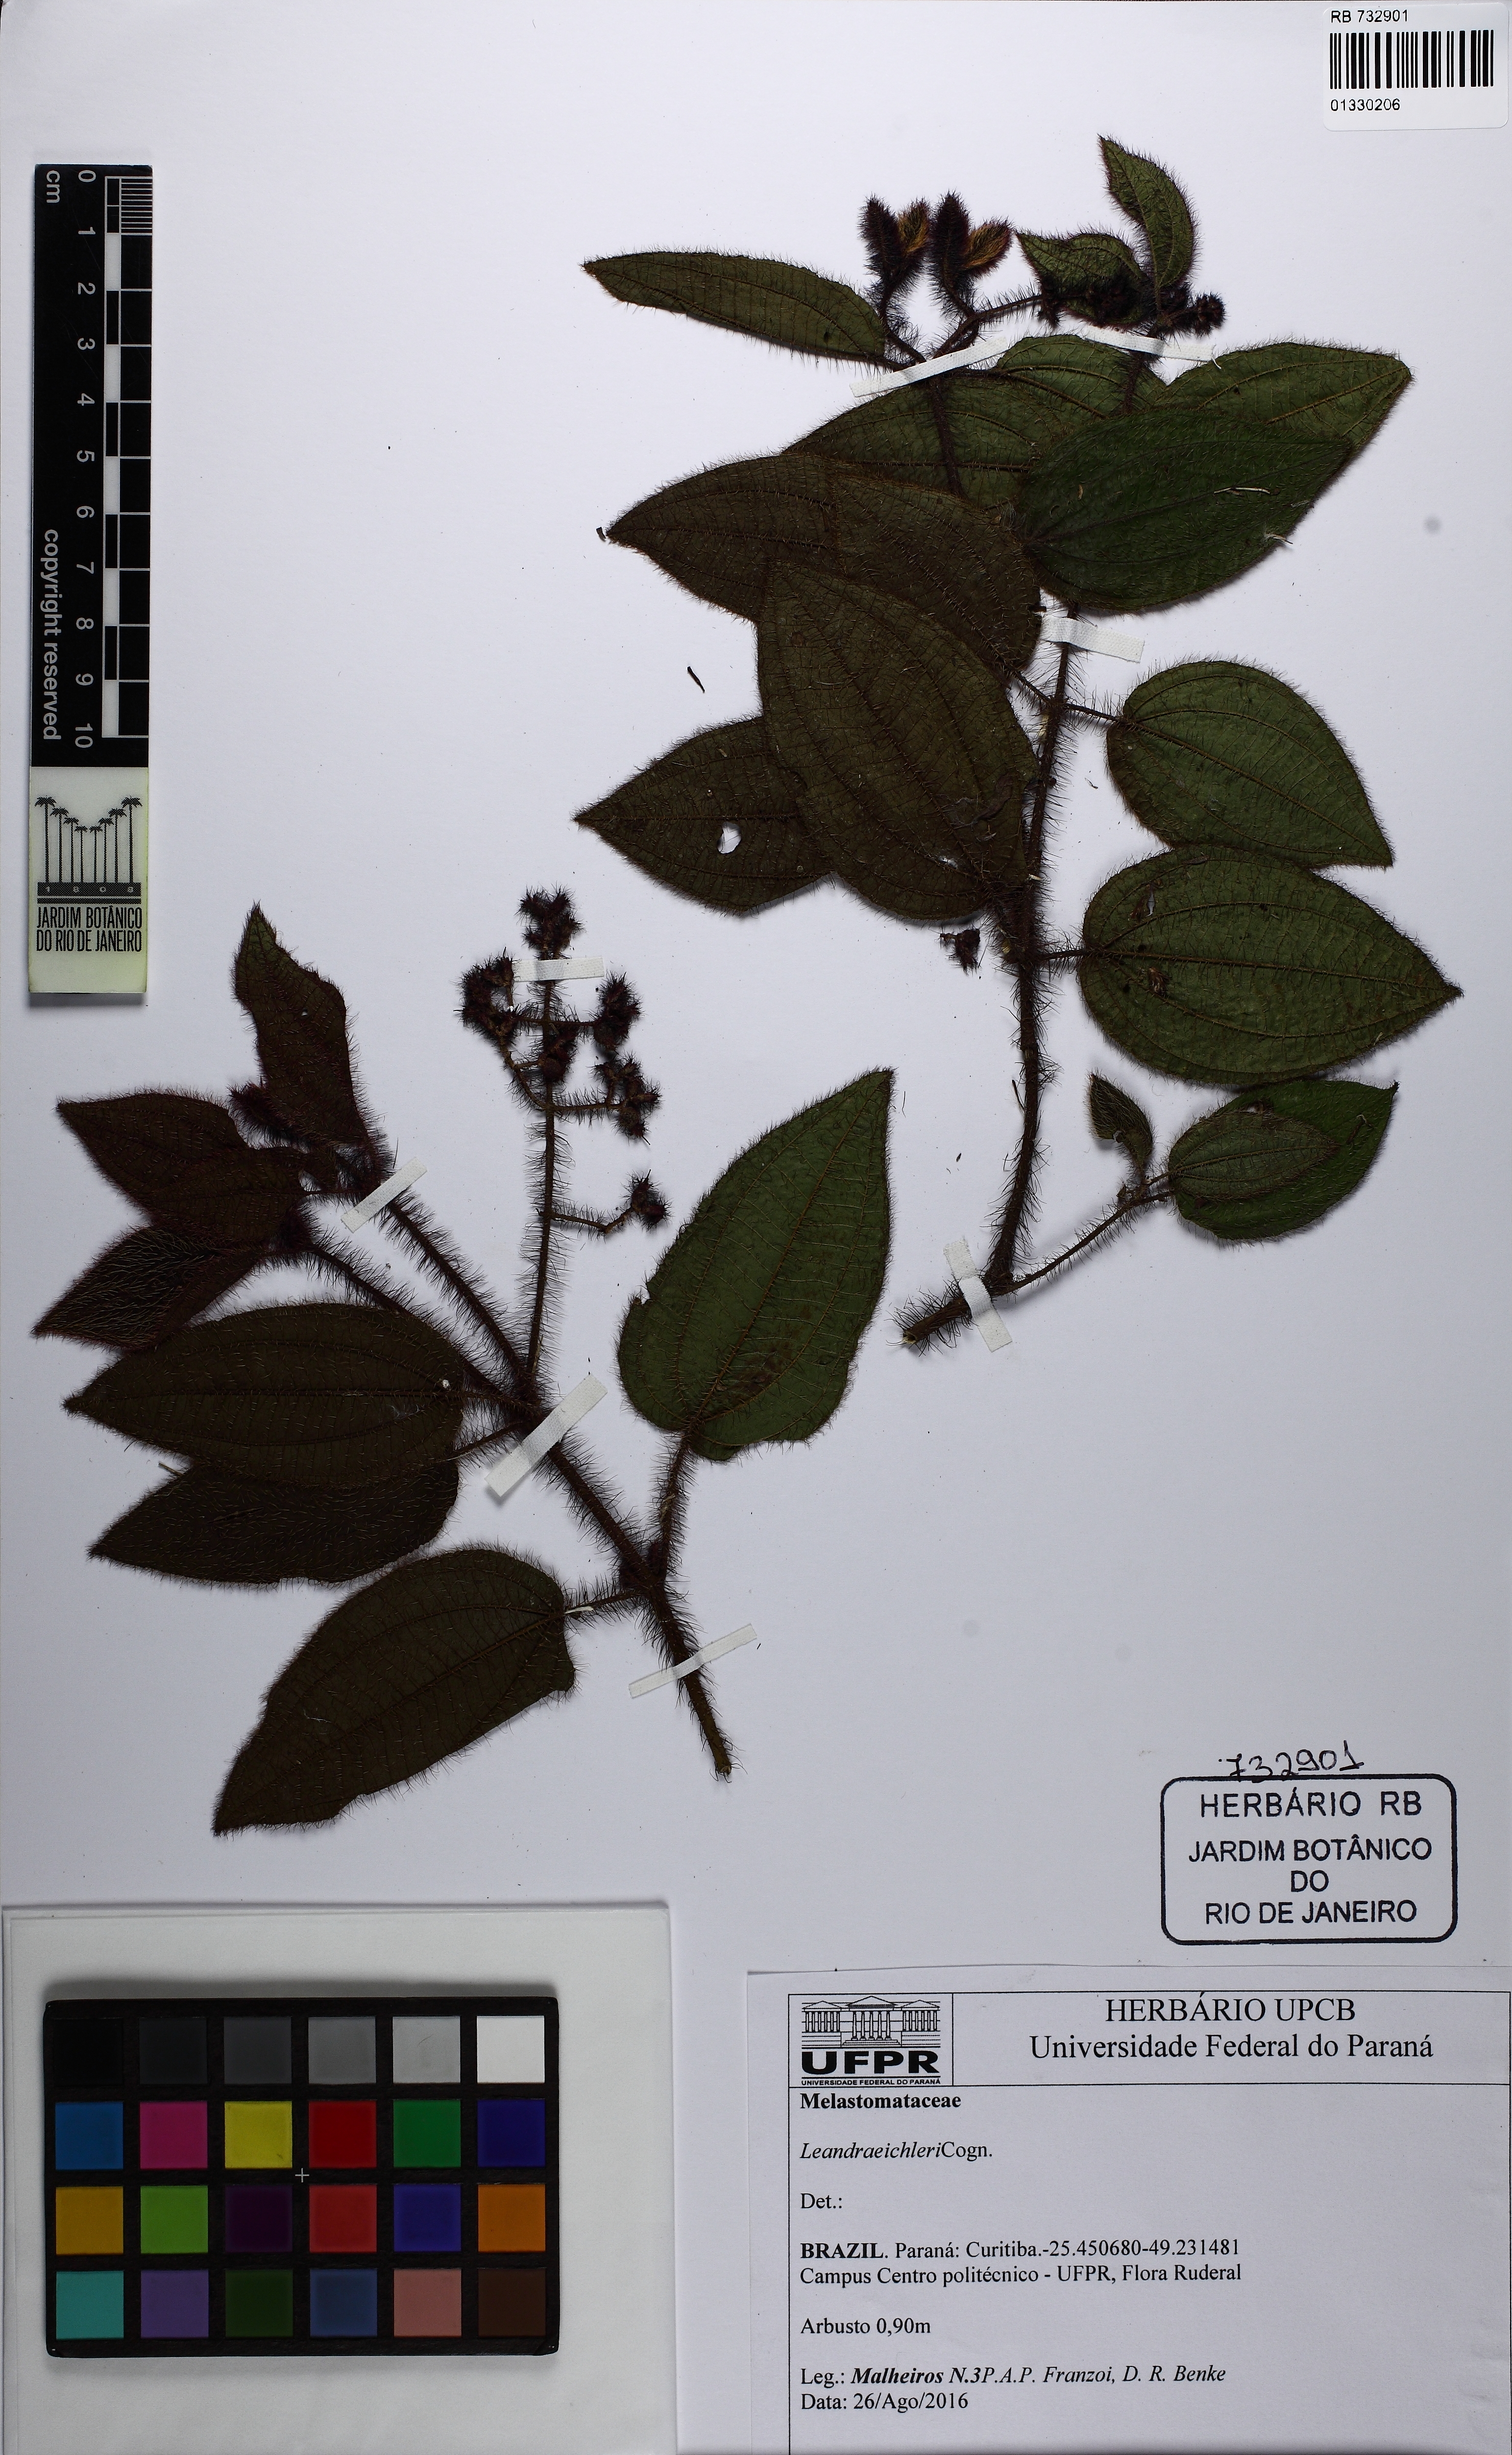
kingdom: Plantae
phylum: Tracheophyta
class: Magnoliopsida
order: Myrtales
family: Melastomataceae
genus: Miconia
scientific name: Miconia leaeichleri
